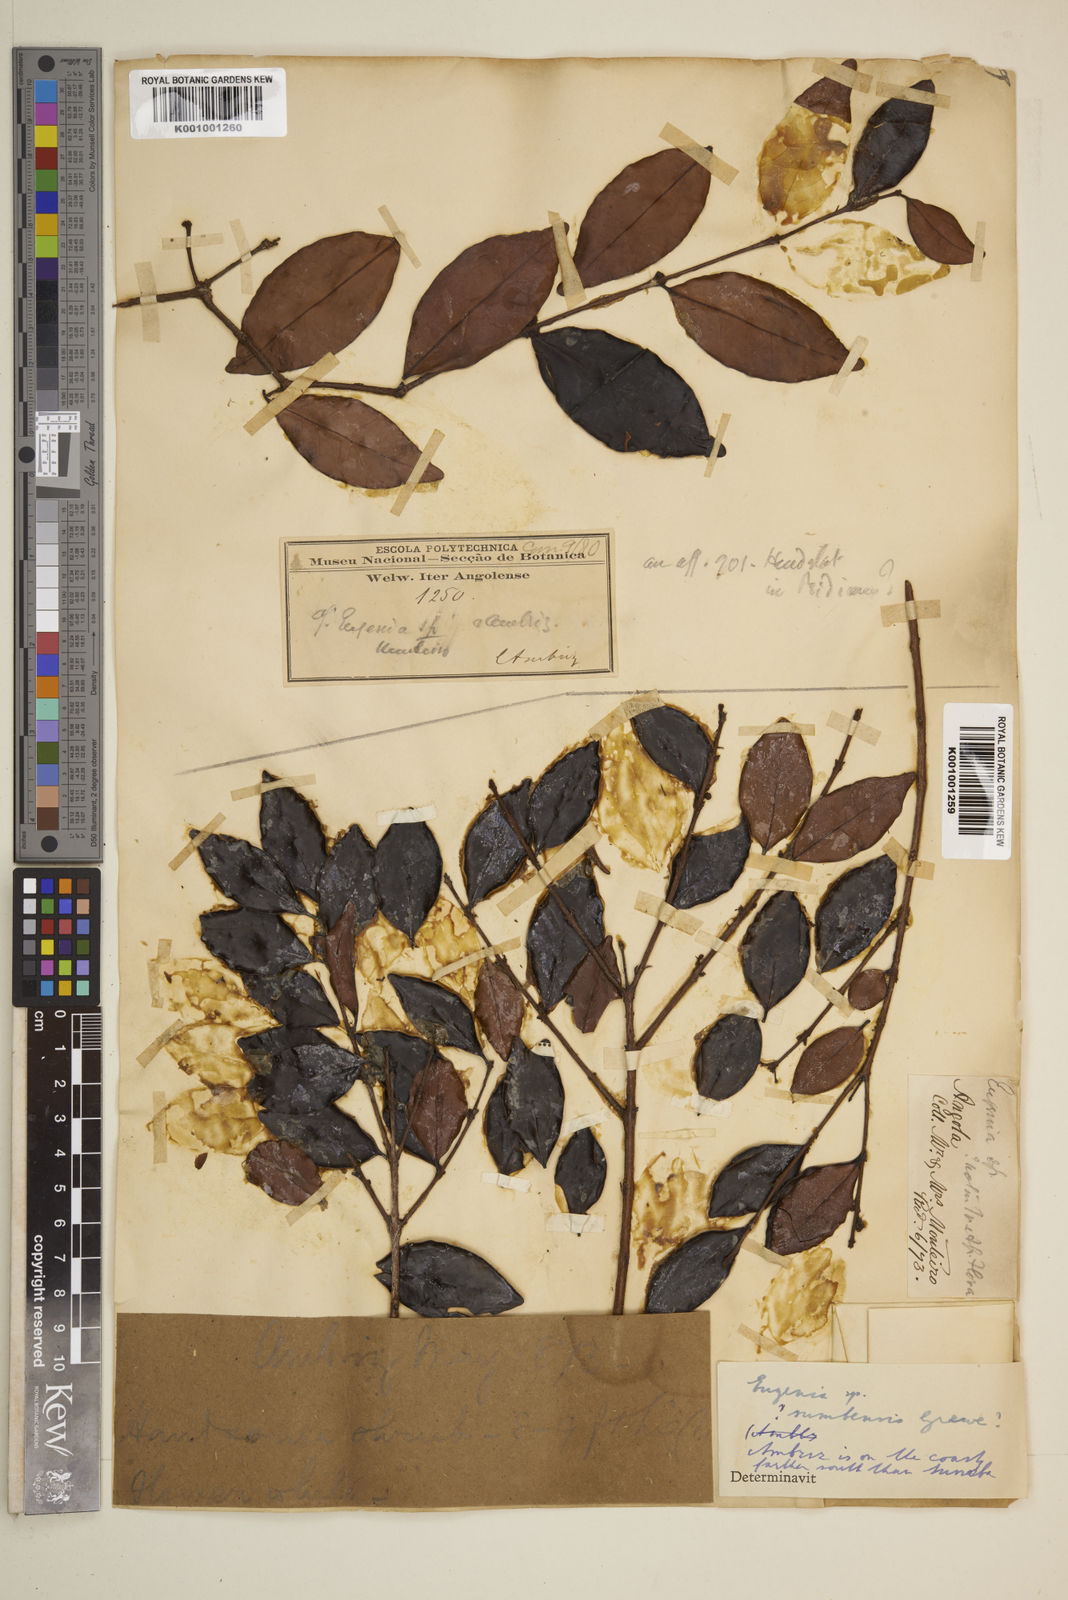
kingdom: Plantae
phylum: Tracheophyta
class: Magnoliopsida
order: Myrtales
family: Myrtaceae
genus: Eugenia
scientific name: Eugenia sumbensis
